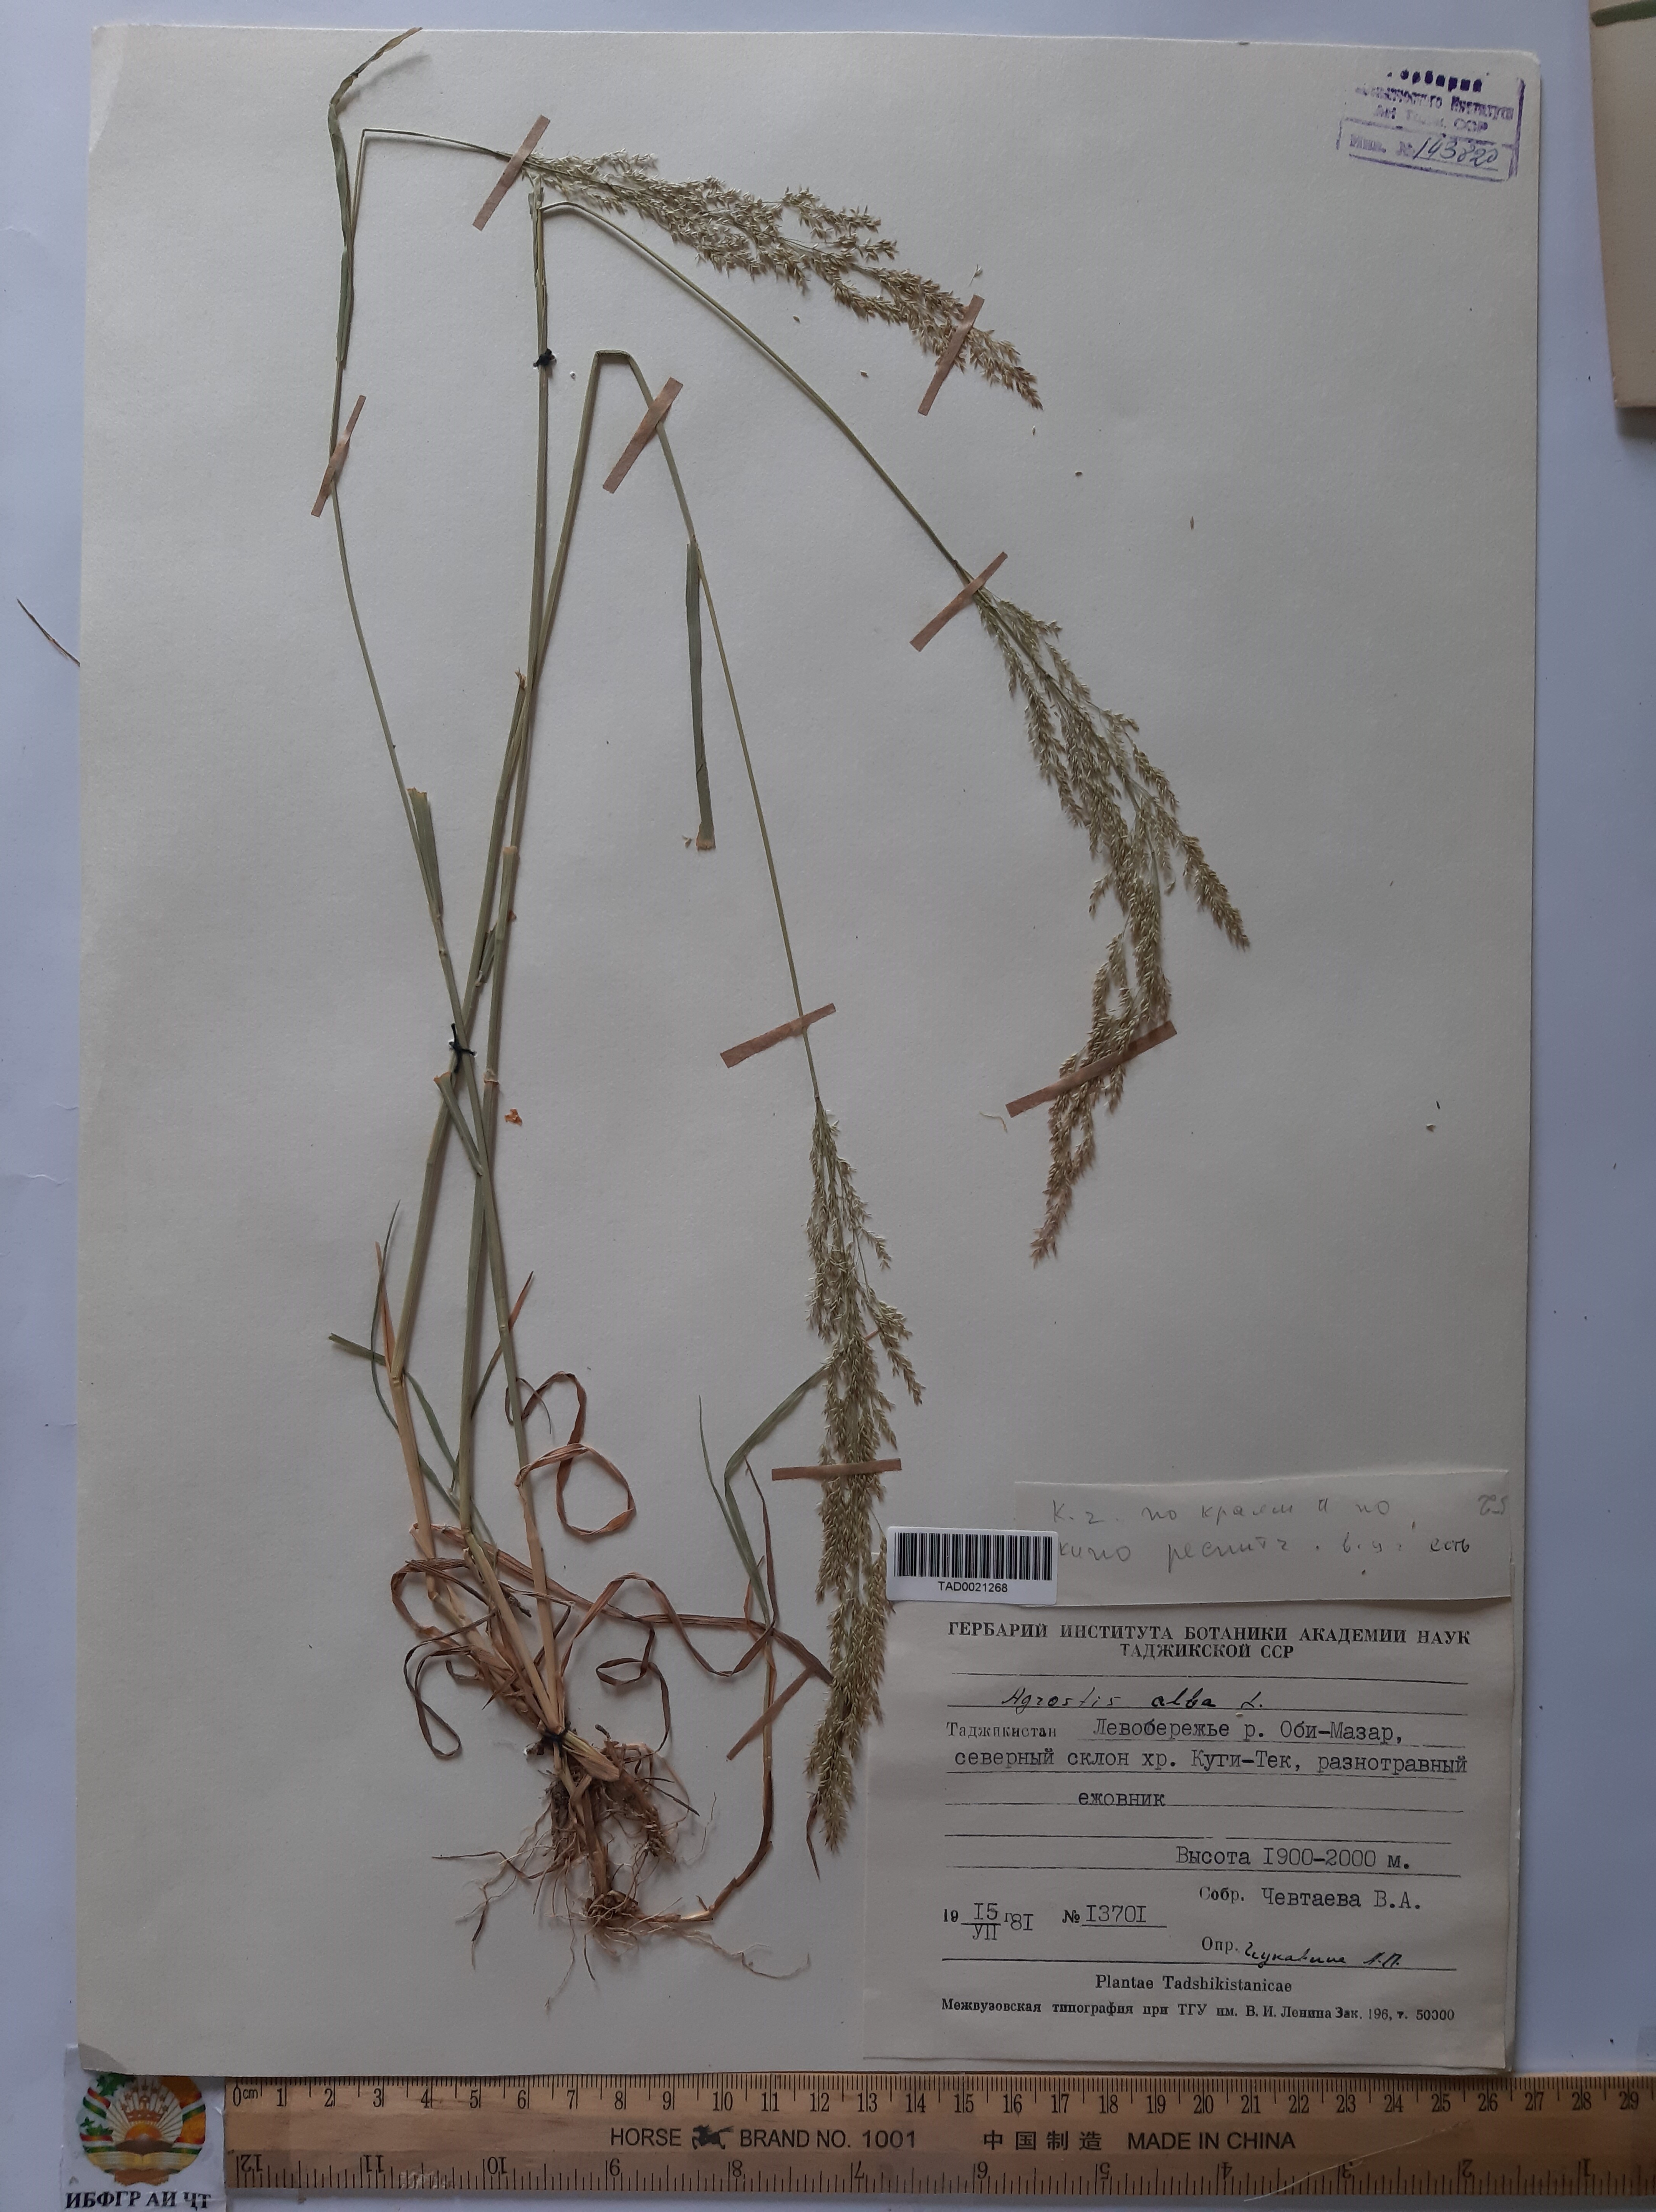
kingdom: Plantae
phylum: Tracheophyta
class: Liliopsida
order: Poales
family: Poaceae
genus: Poa
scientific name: Poa nemoralis
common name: Wood bluegrass
